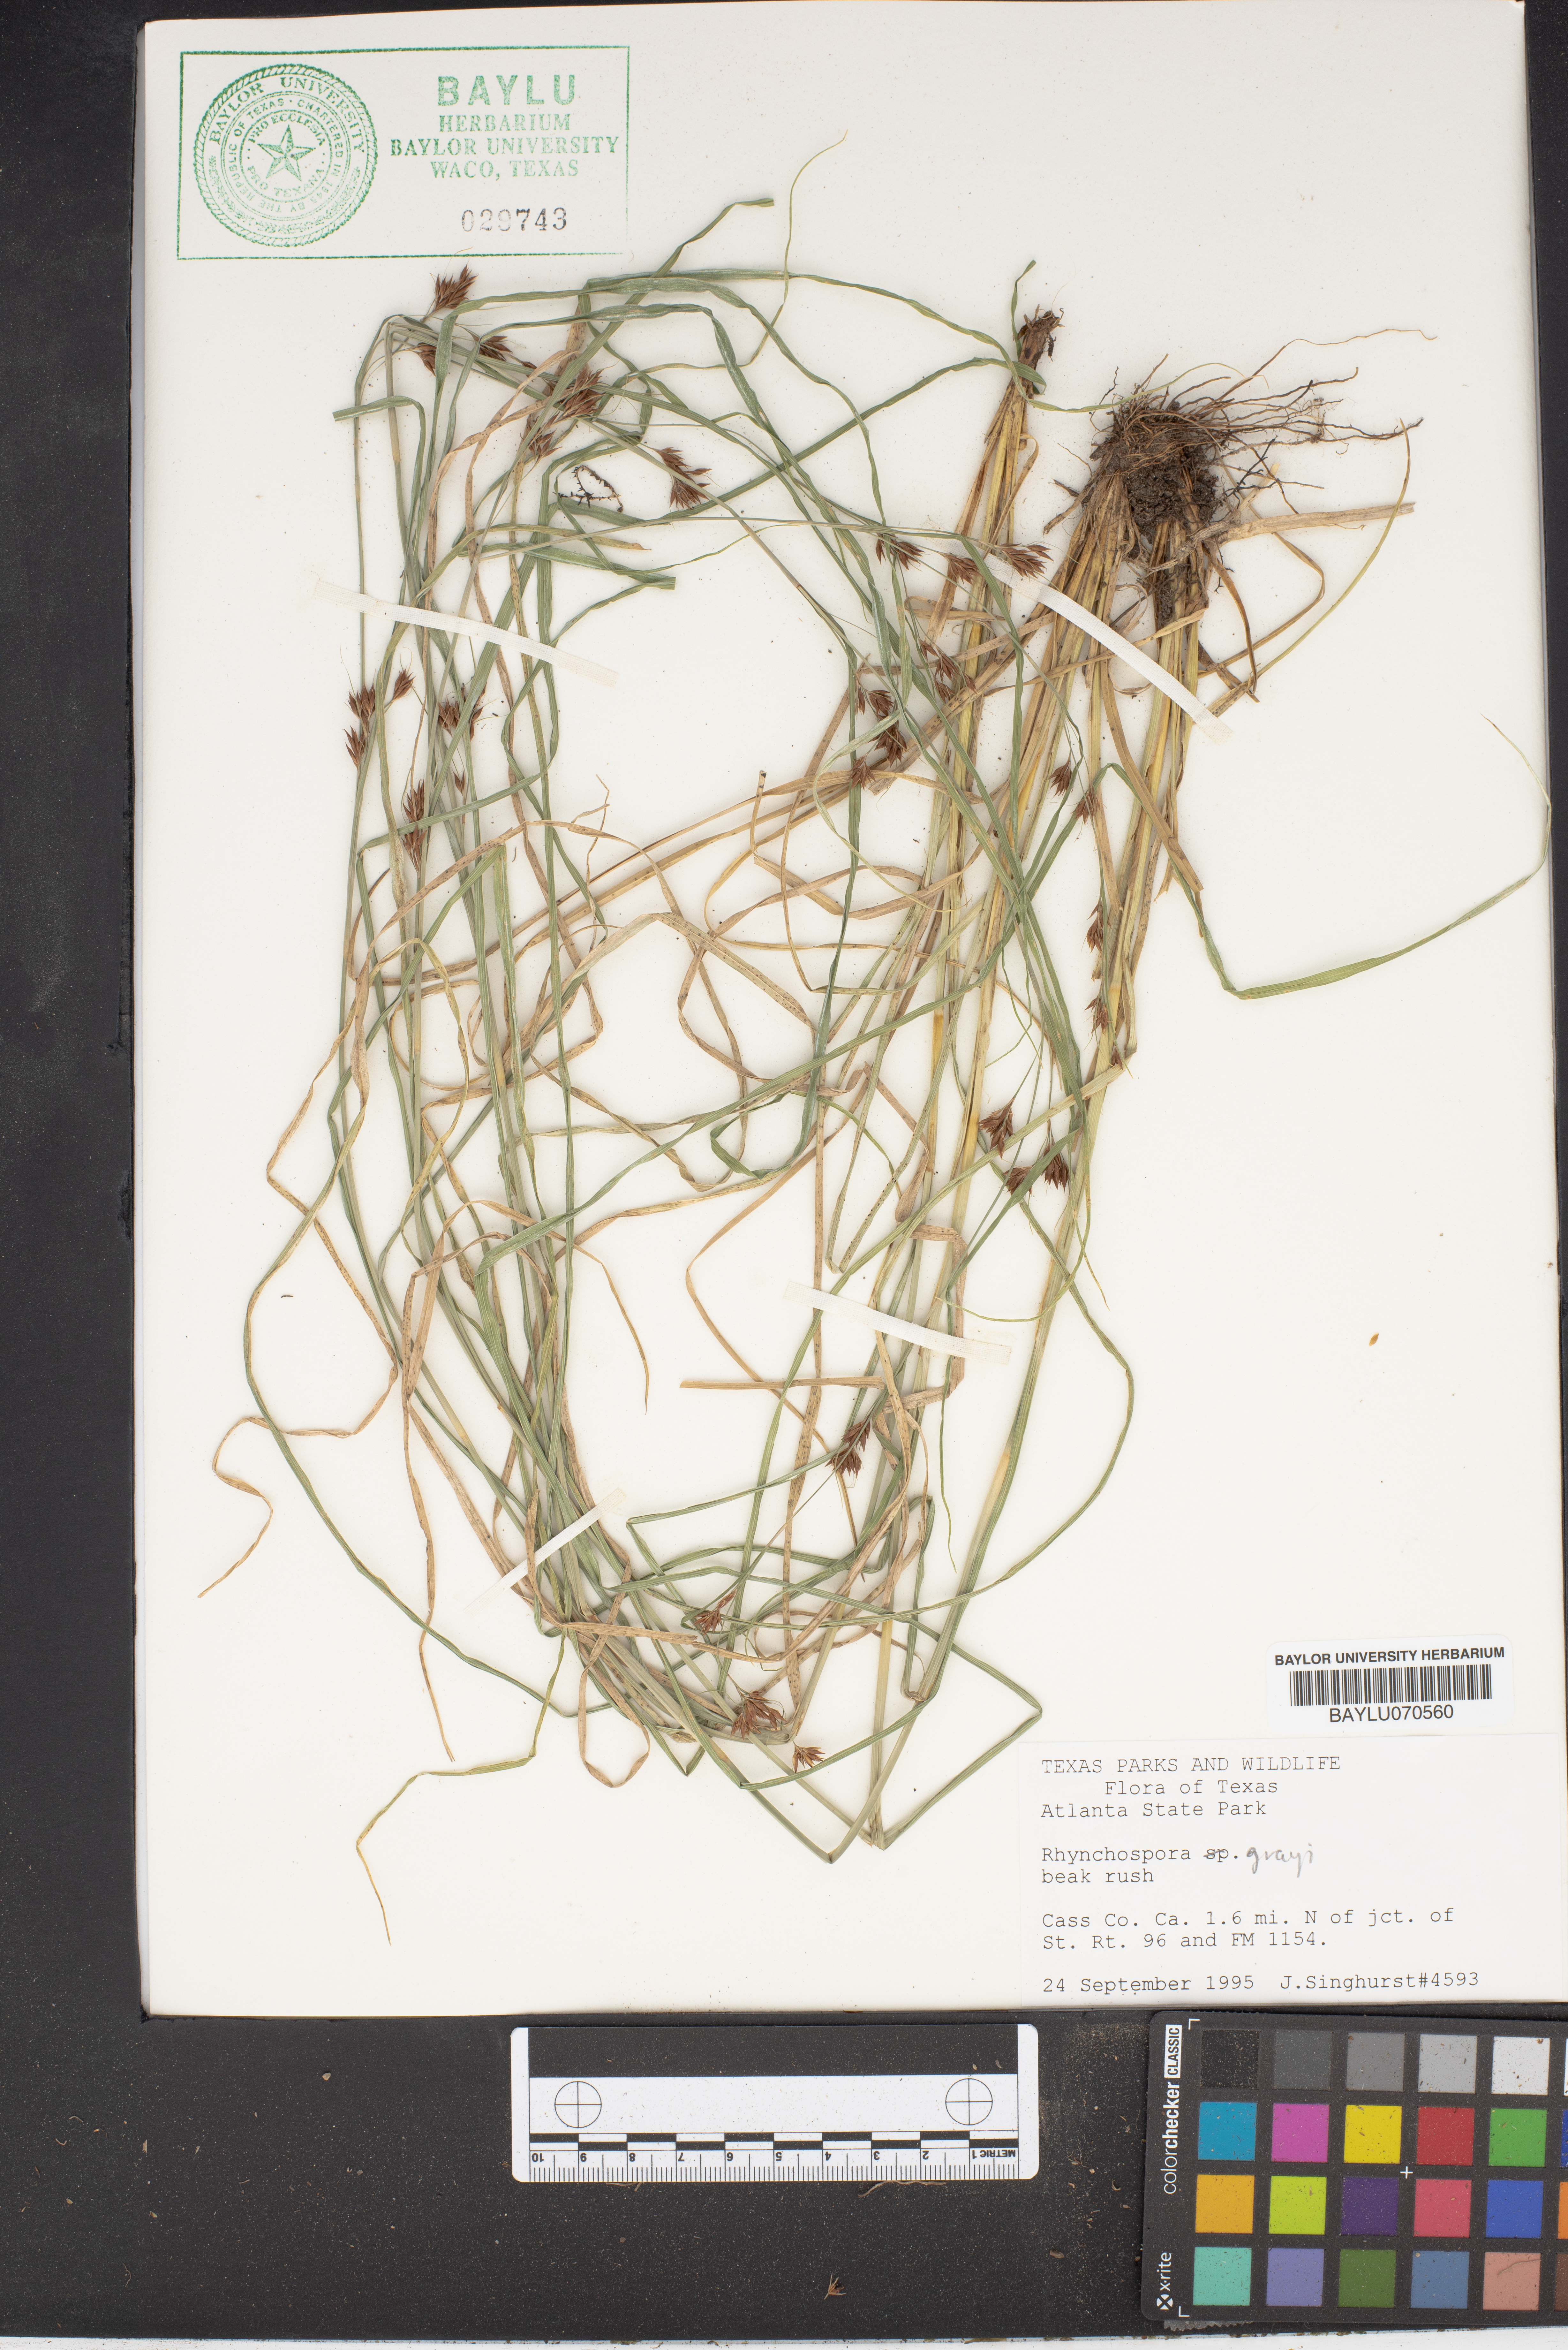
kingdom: Plantae
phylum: Tracheophyta
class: Liliopsida
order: Poales
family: Cyperaceae
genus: Rhynchospora
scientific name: Rhynchospora grayi
